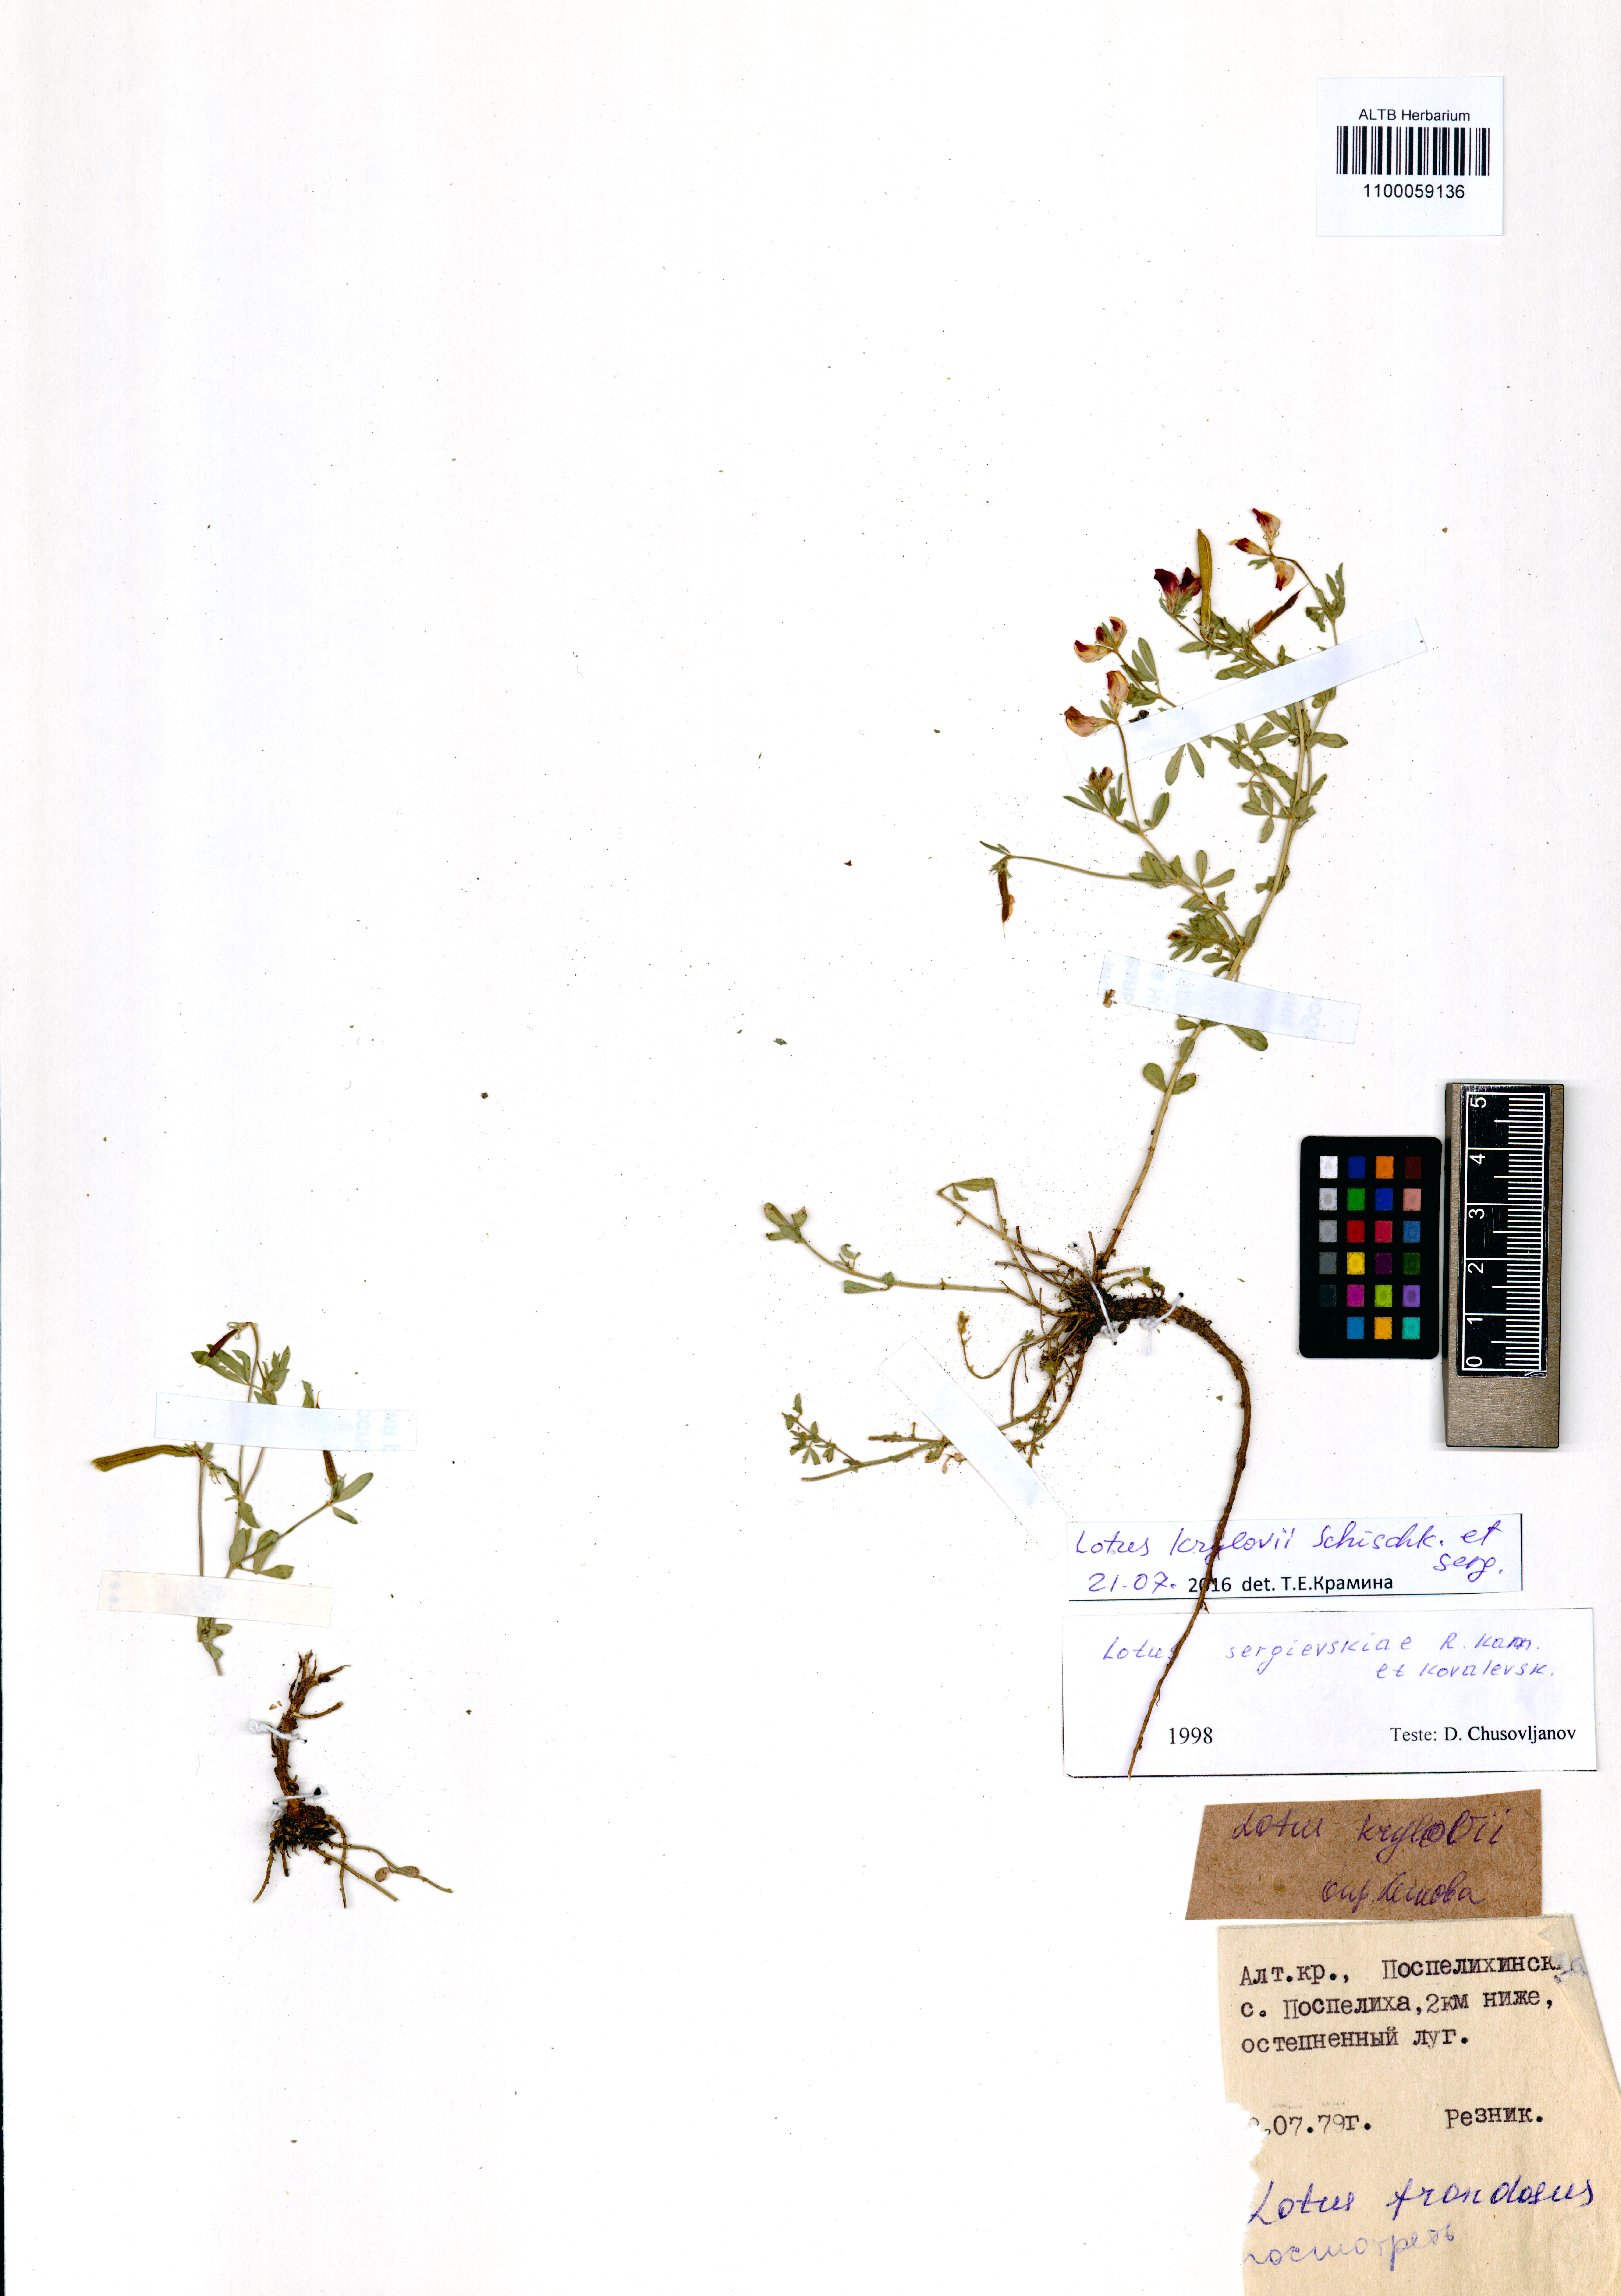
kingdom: Plantae
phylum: Tracheophyta
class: Magnoliopsida
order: Fabales
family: Fabaceae
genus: Lotus
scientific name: Lotus krylovii
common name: Krylov's bird's-foot trefoil
